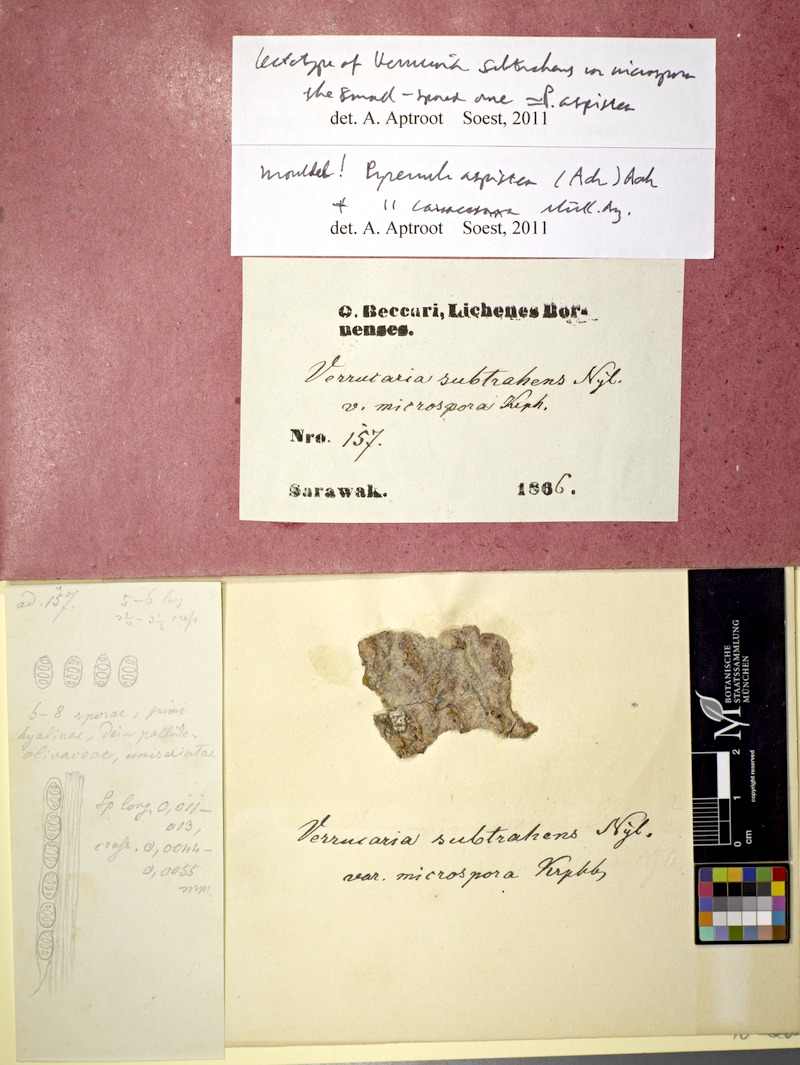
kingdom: Fungi
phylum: Ascomycota
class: Eurotiomycetes
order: Pyrenulales
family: Pyrenulaceae
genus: Pyrenula
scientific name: Pyrenula caracasana
